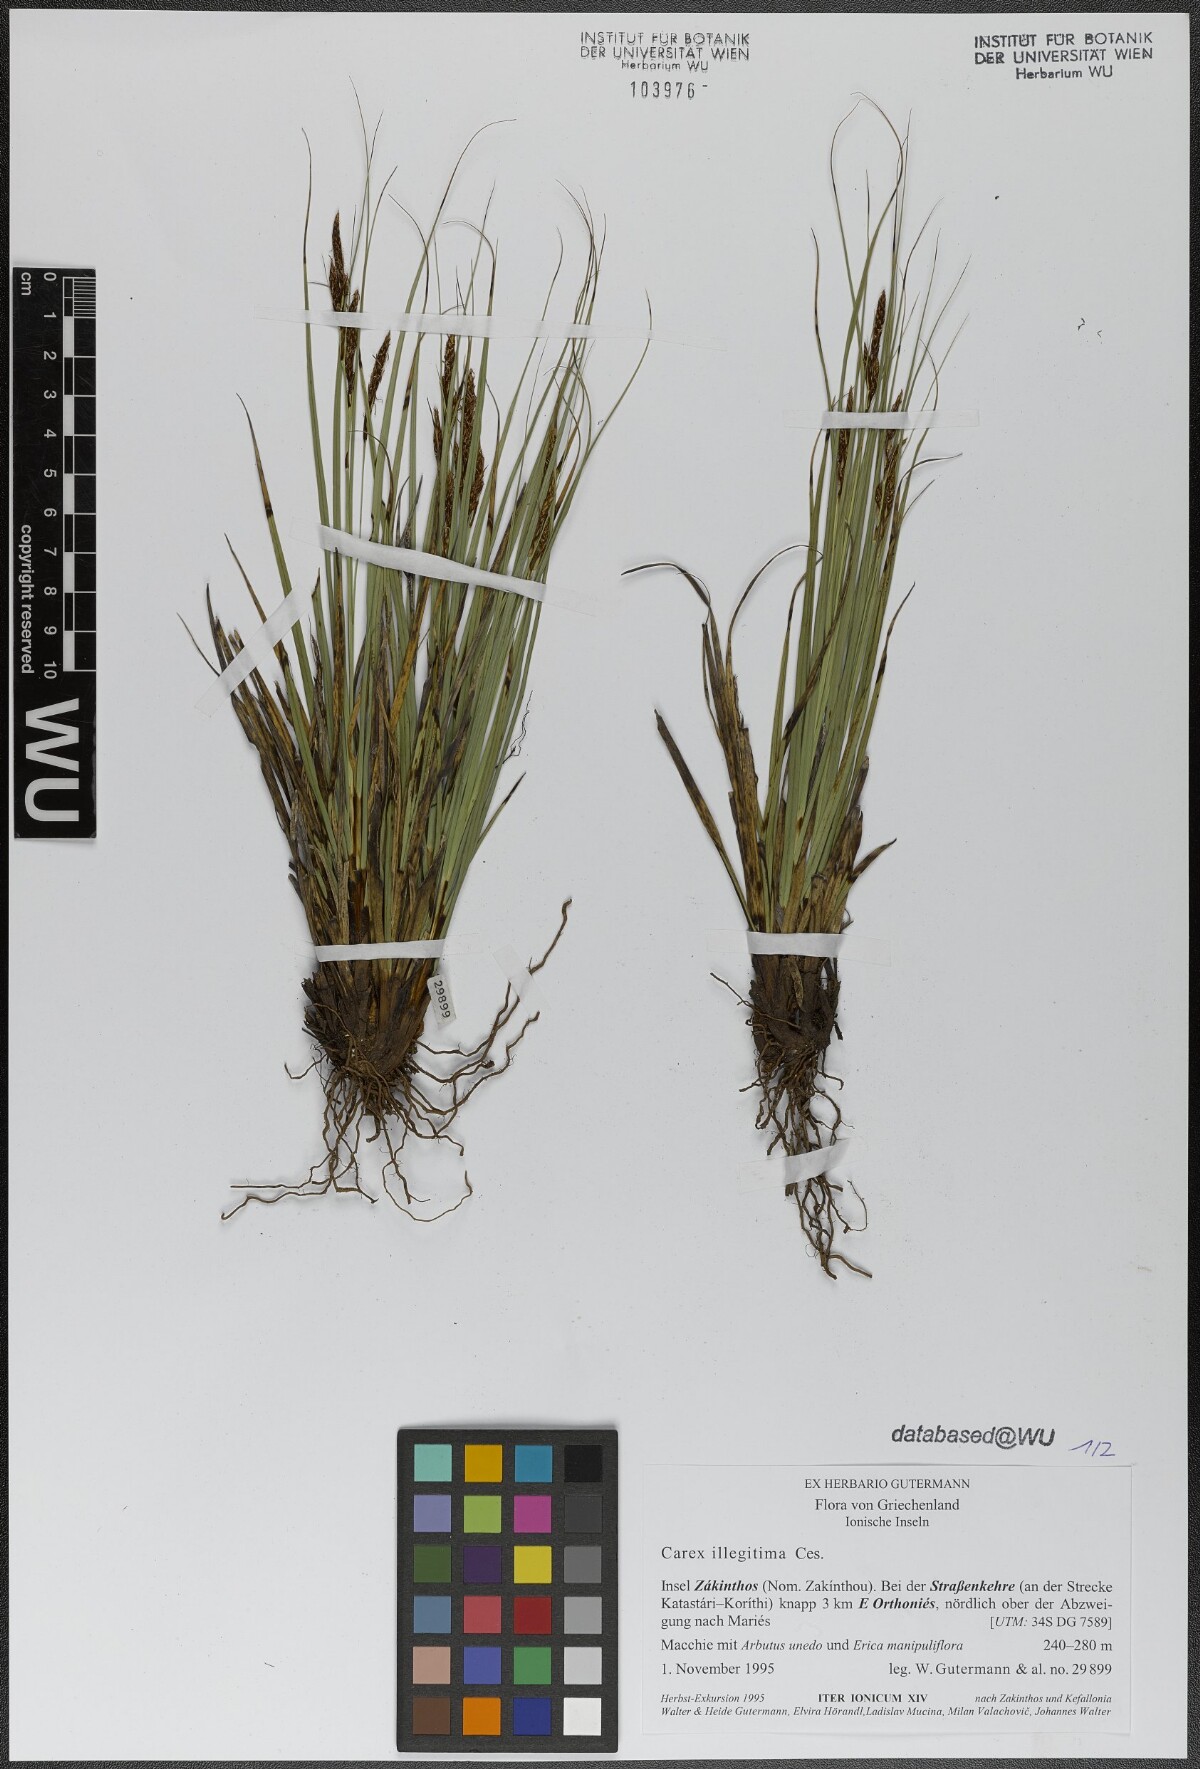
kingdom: Plantae
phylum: Tracheophyta
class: Liliopsida
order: Poales
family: Cyperaceae
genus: Carex
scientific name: Carex illegitima
